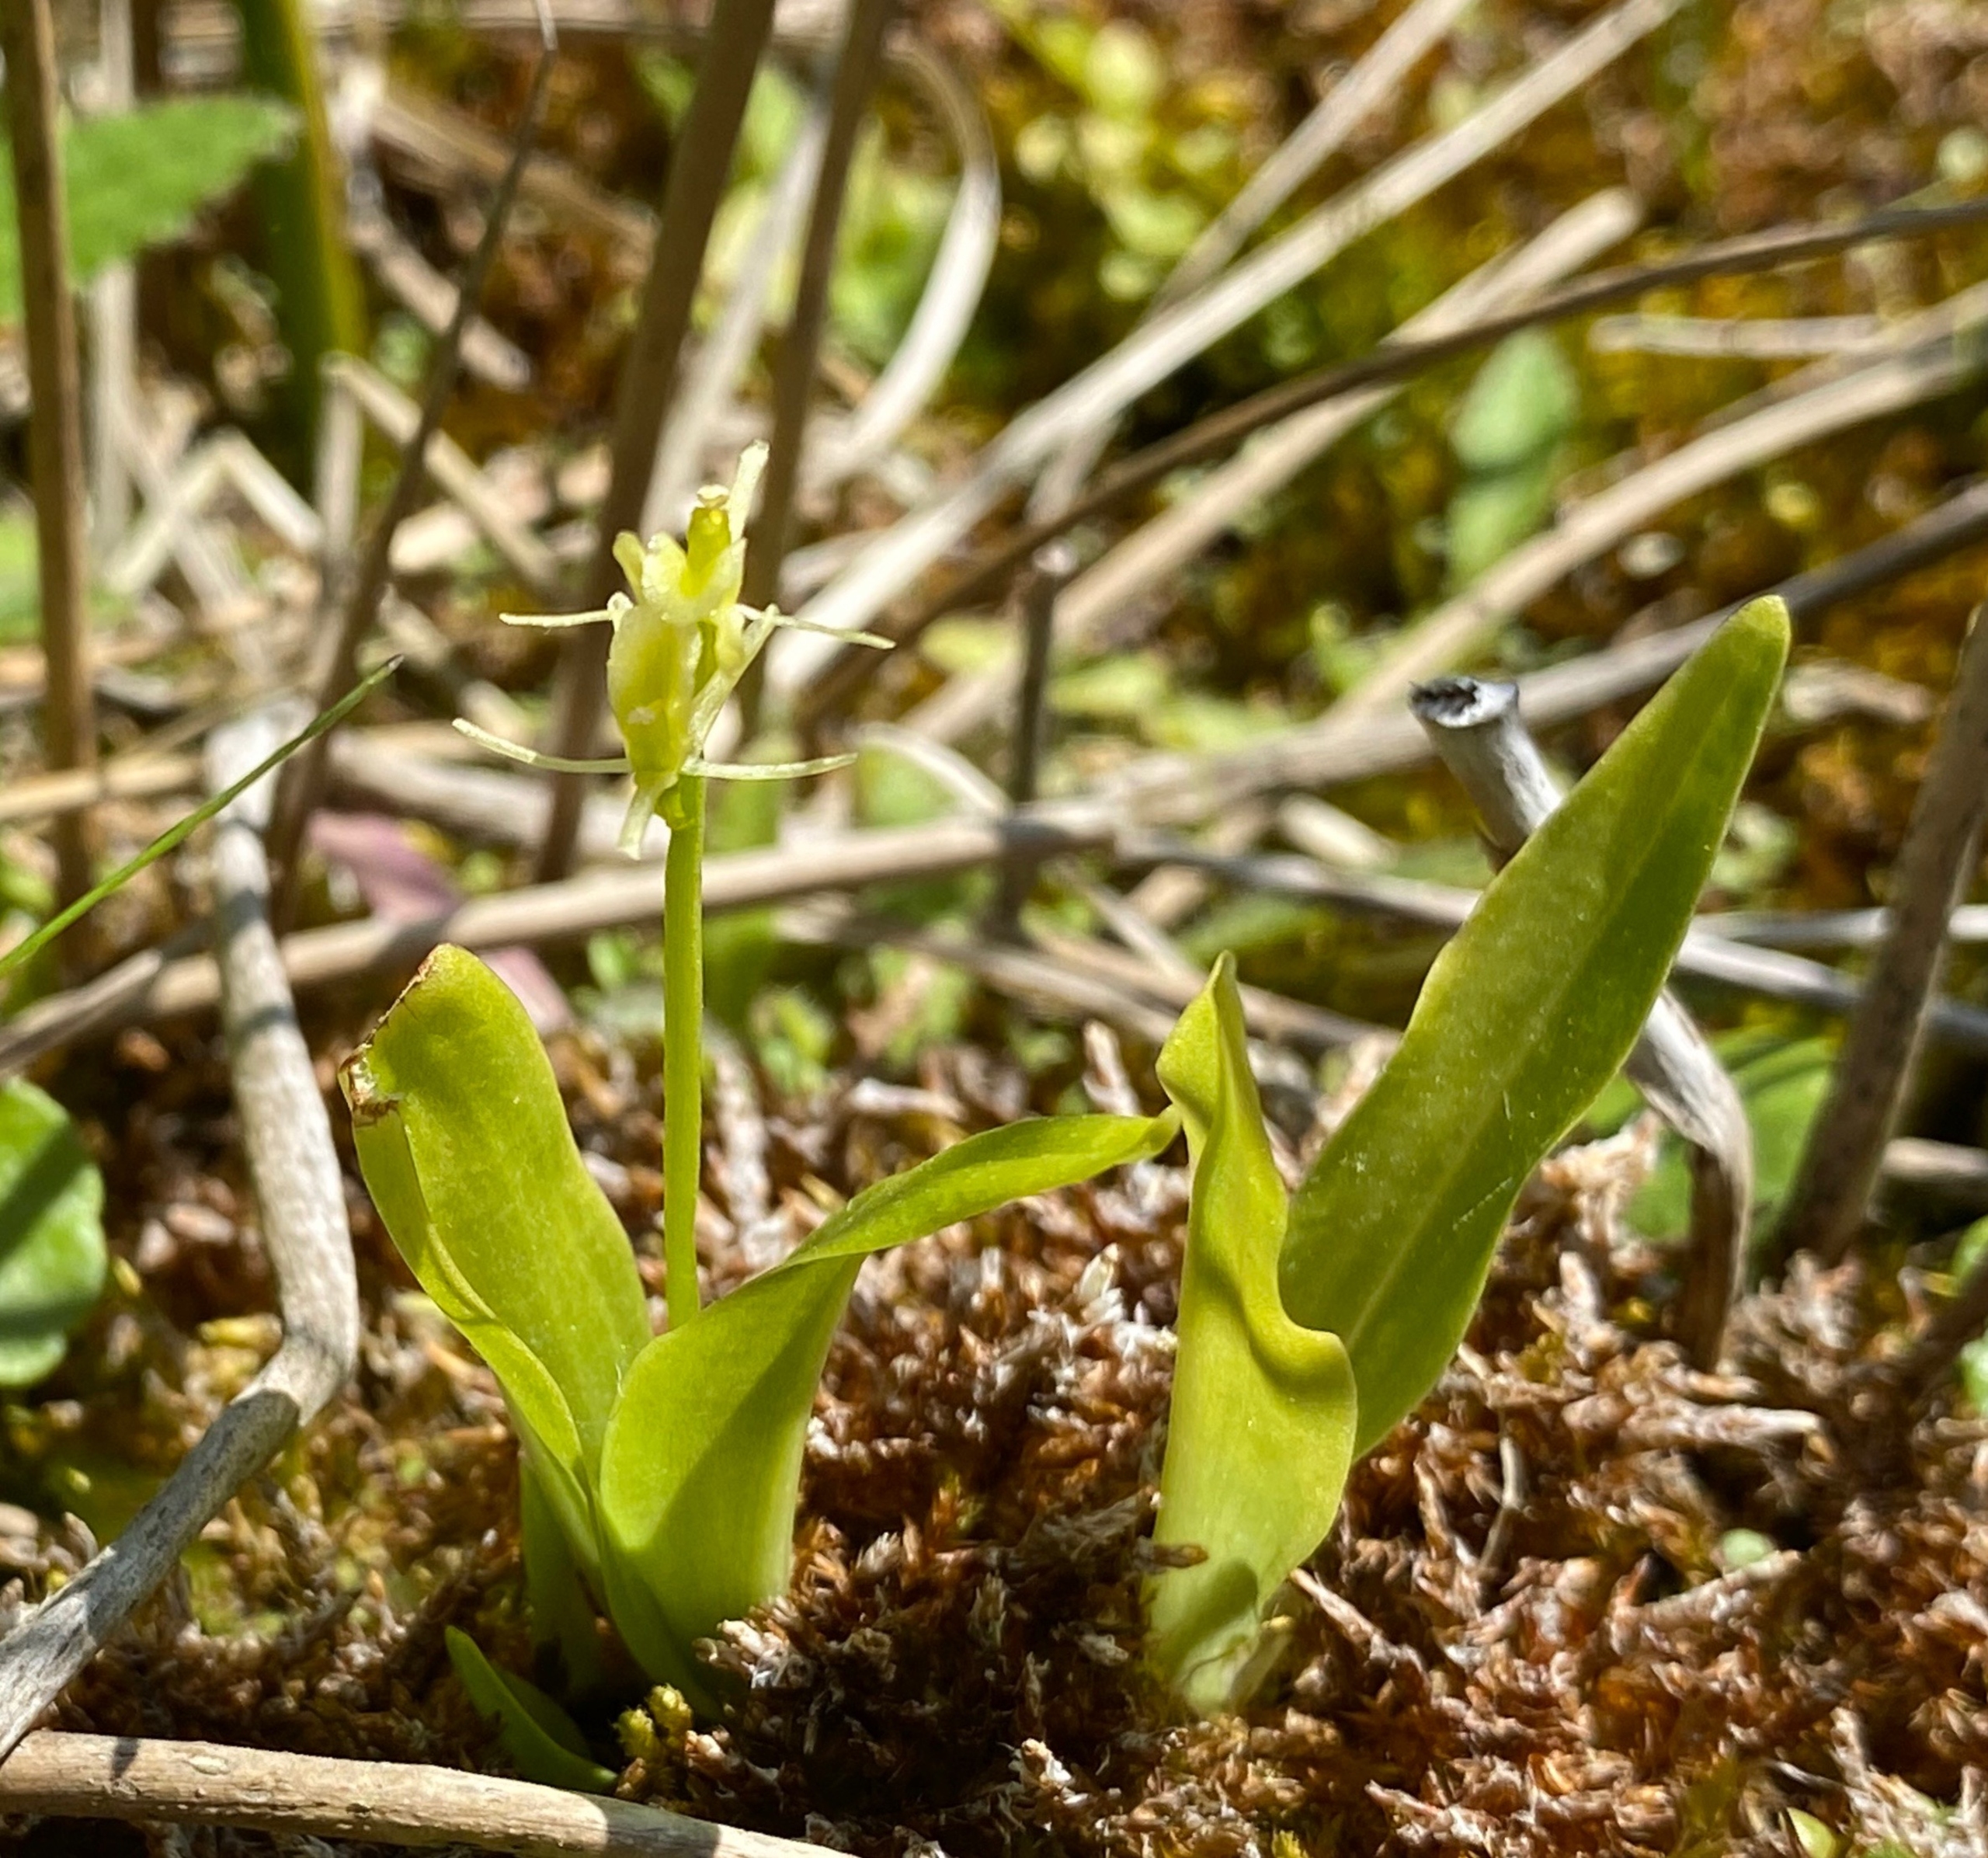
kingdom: Animalia
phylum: Arthropoda
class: Insecta
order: Coleoptera
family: Curculionidae
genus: Liparis
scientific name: Liparis loeselii
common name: Mygblomst
